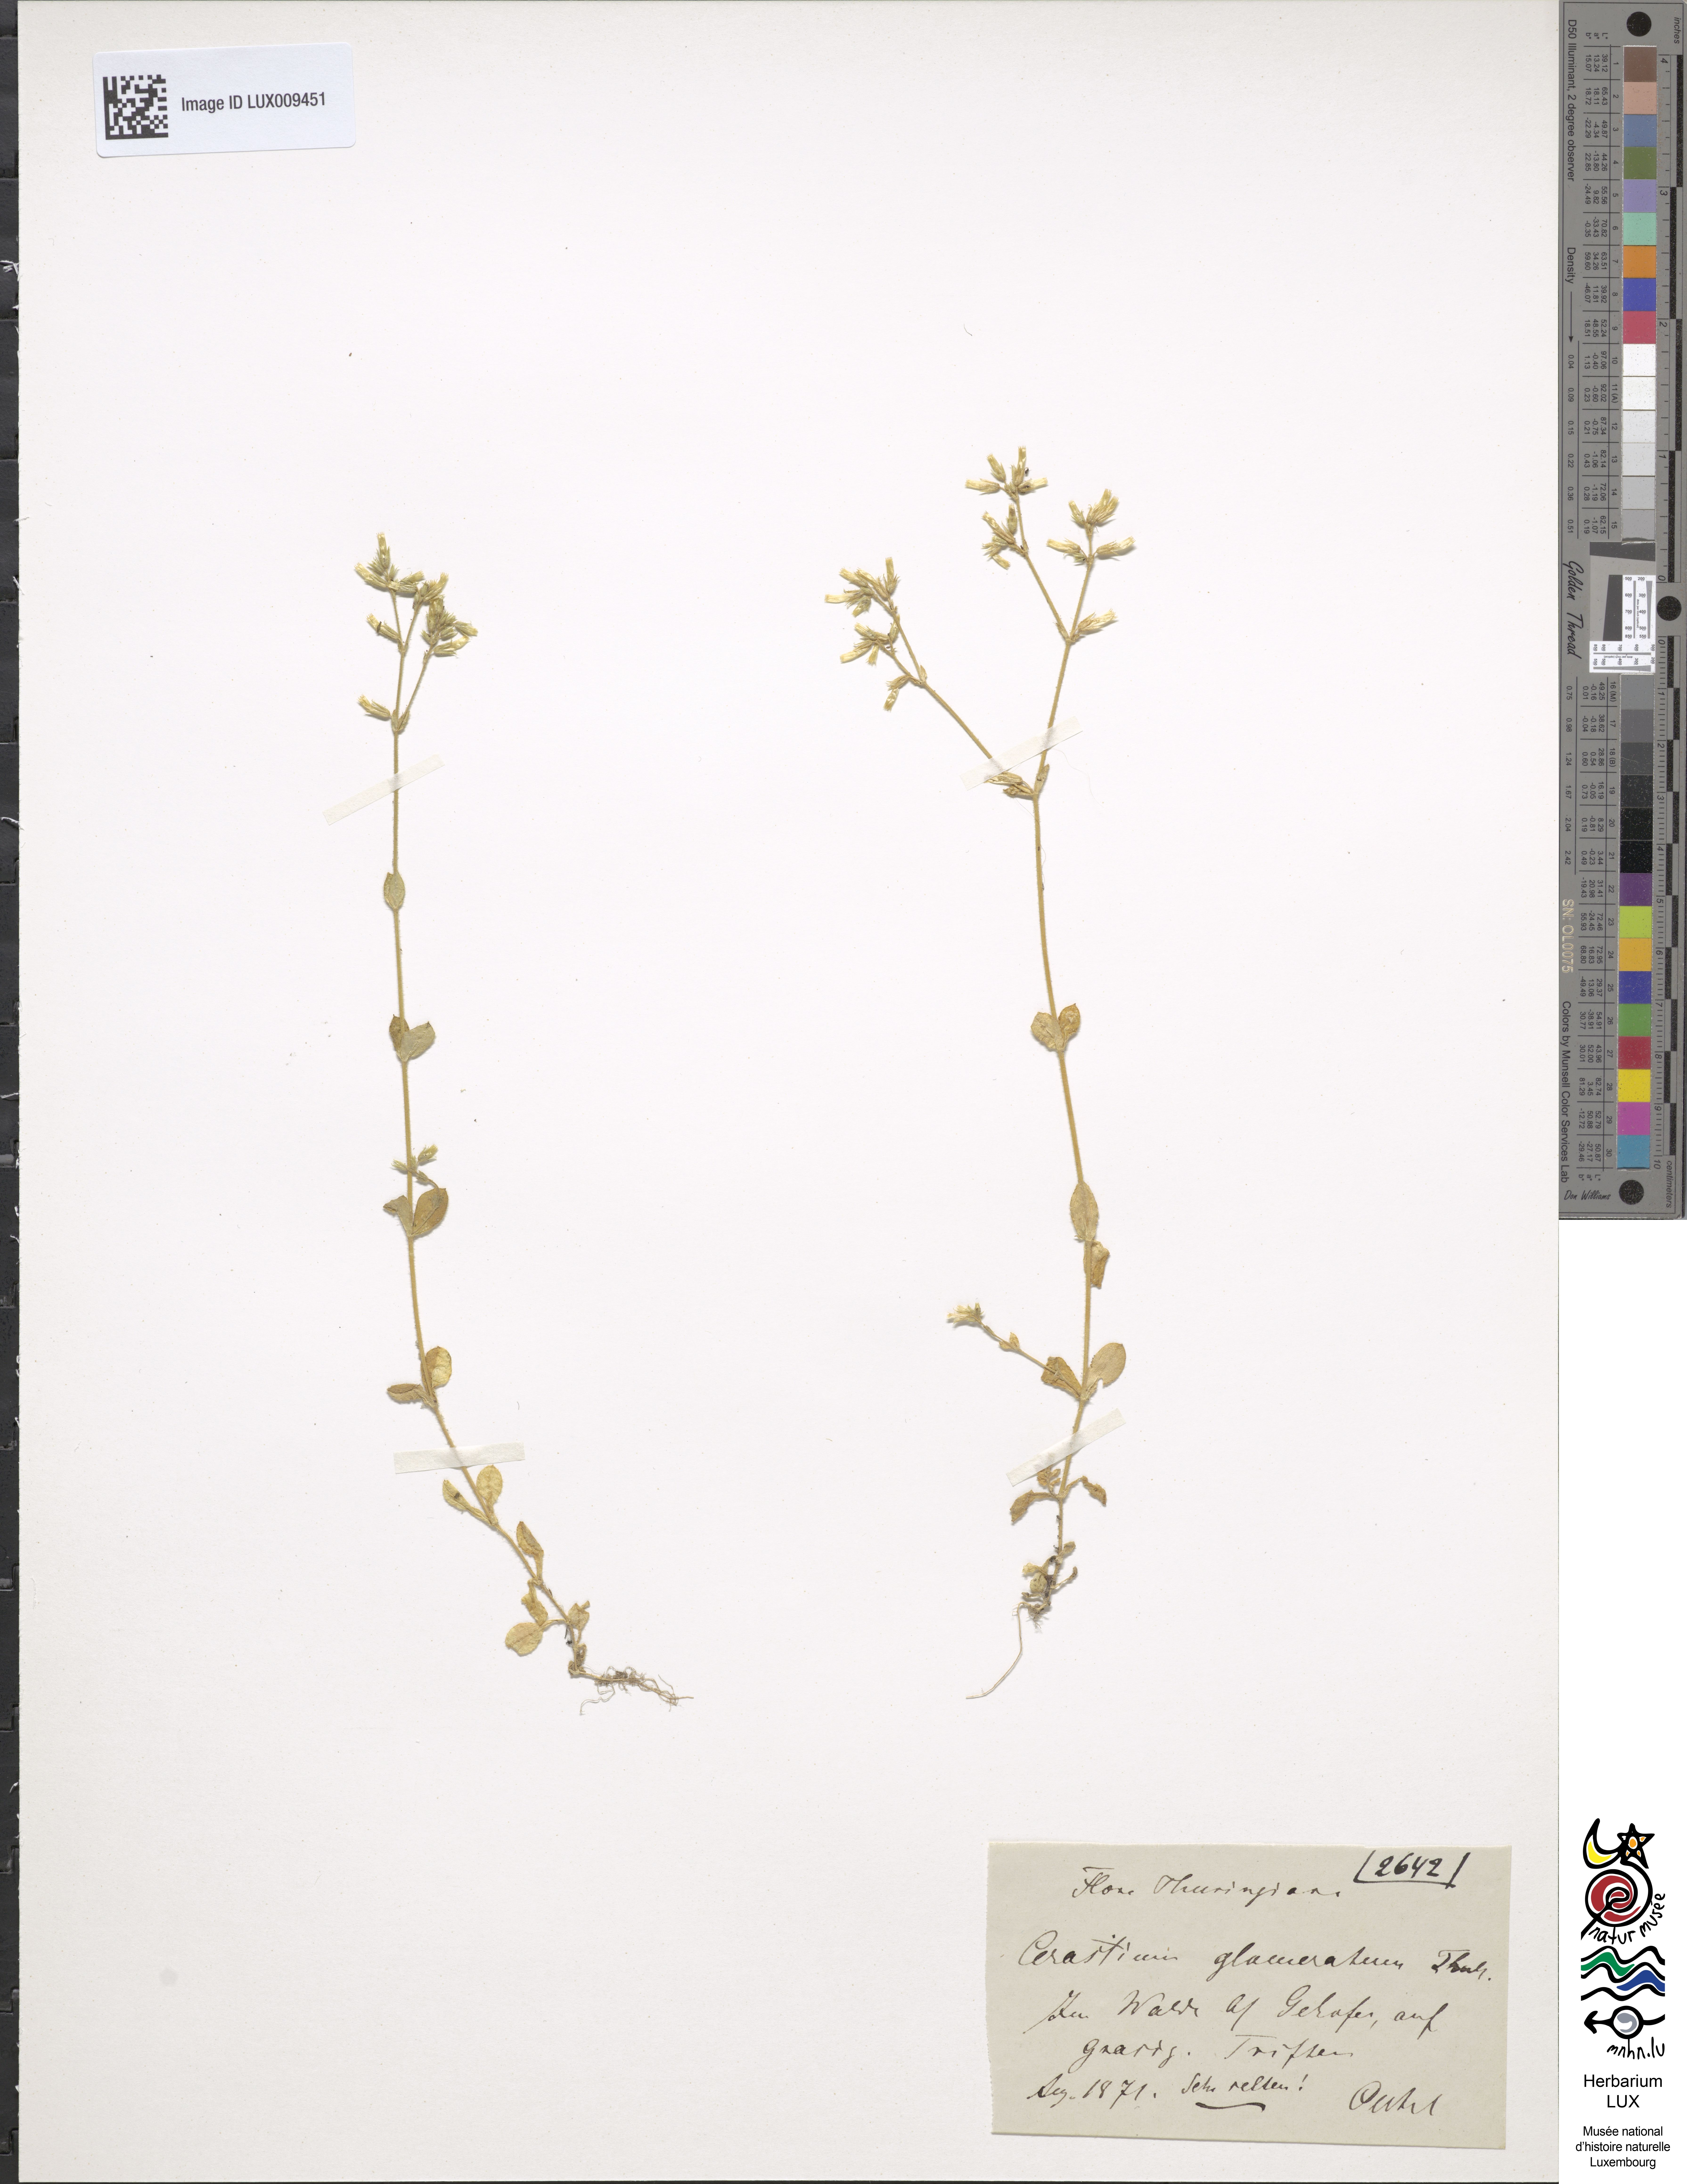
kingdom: Plantae
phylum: Tracheophyta
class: Magnoliopsida
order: Caryophyllales
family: Caryophyllaceae
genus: Cerastium
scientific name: Cerastium glomeratum
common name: Sticky chickweed
